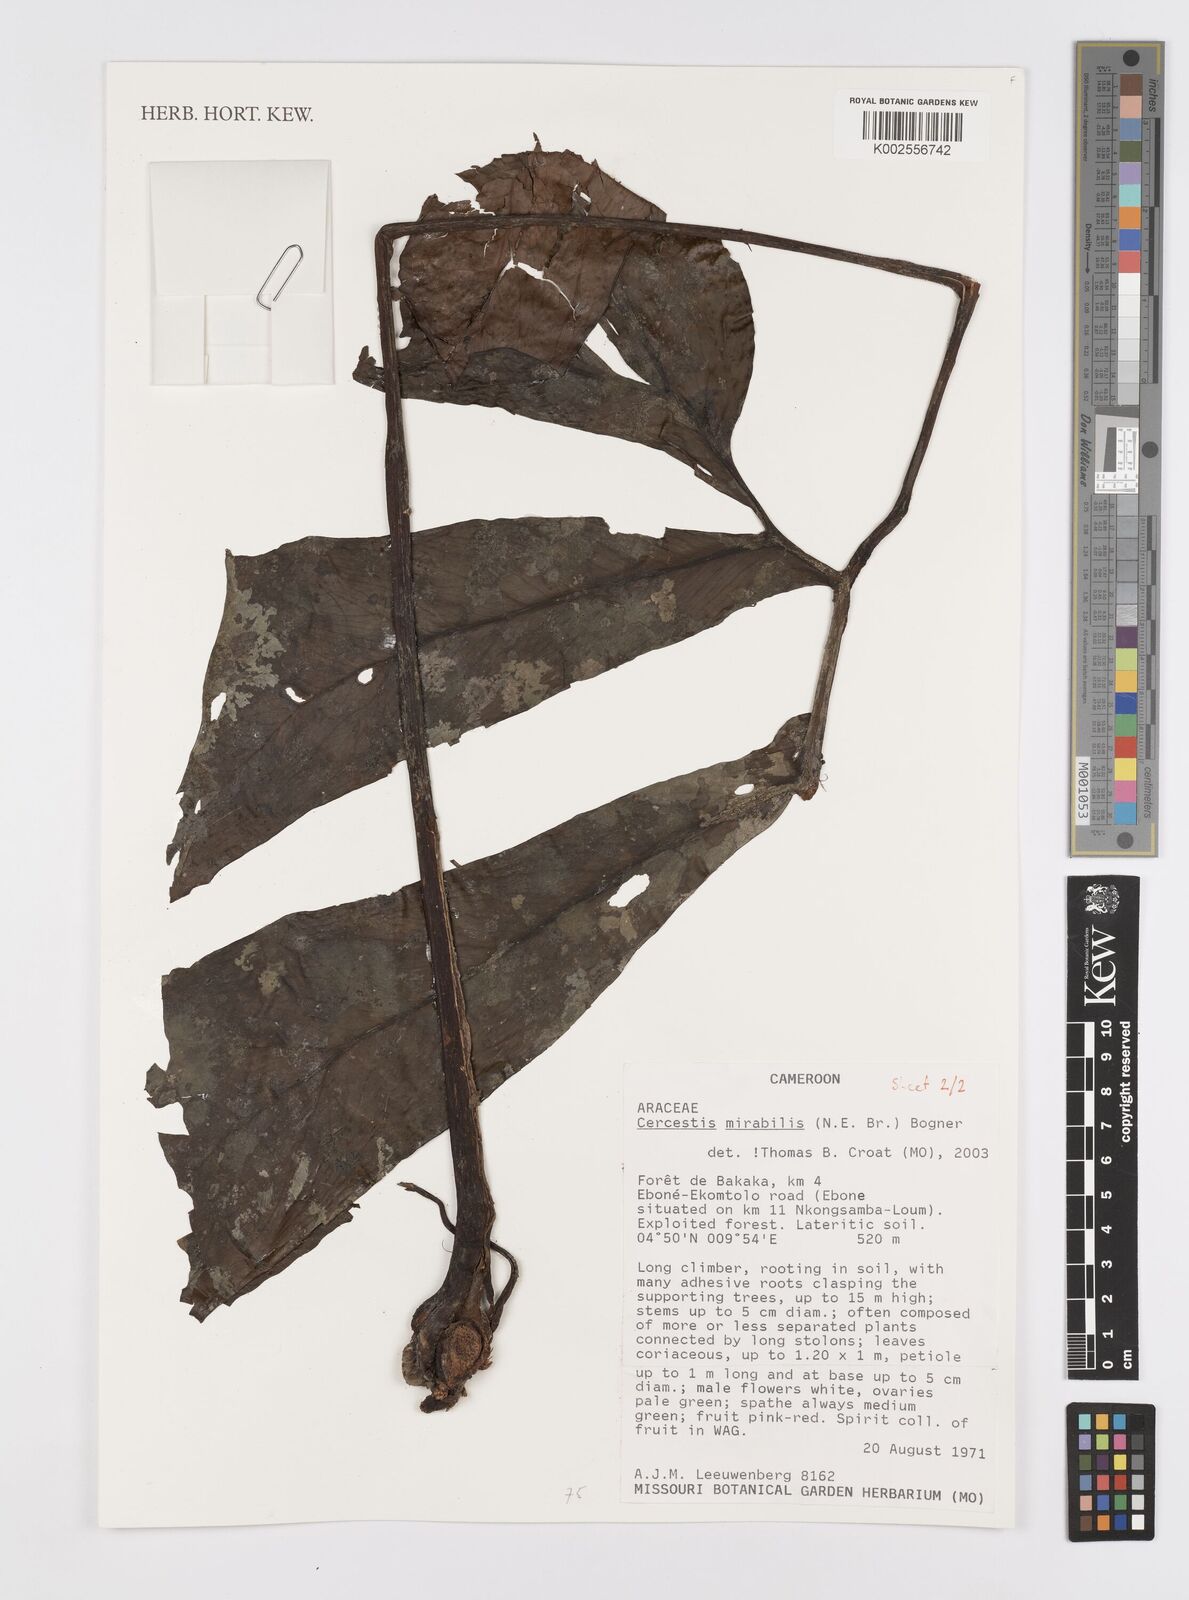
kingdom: Plantae
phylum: Tracheophyta
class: Liliopsida
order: Alismatales
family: Araceae
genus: Cercestis
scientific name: Cercestis mirabilis
